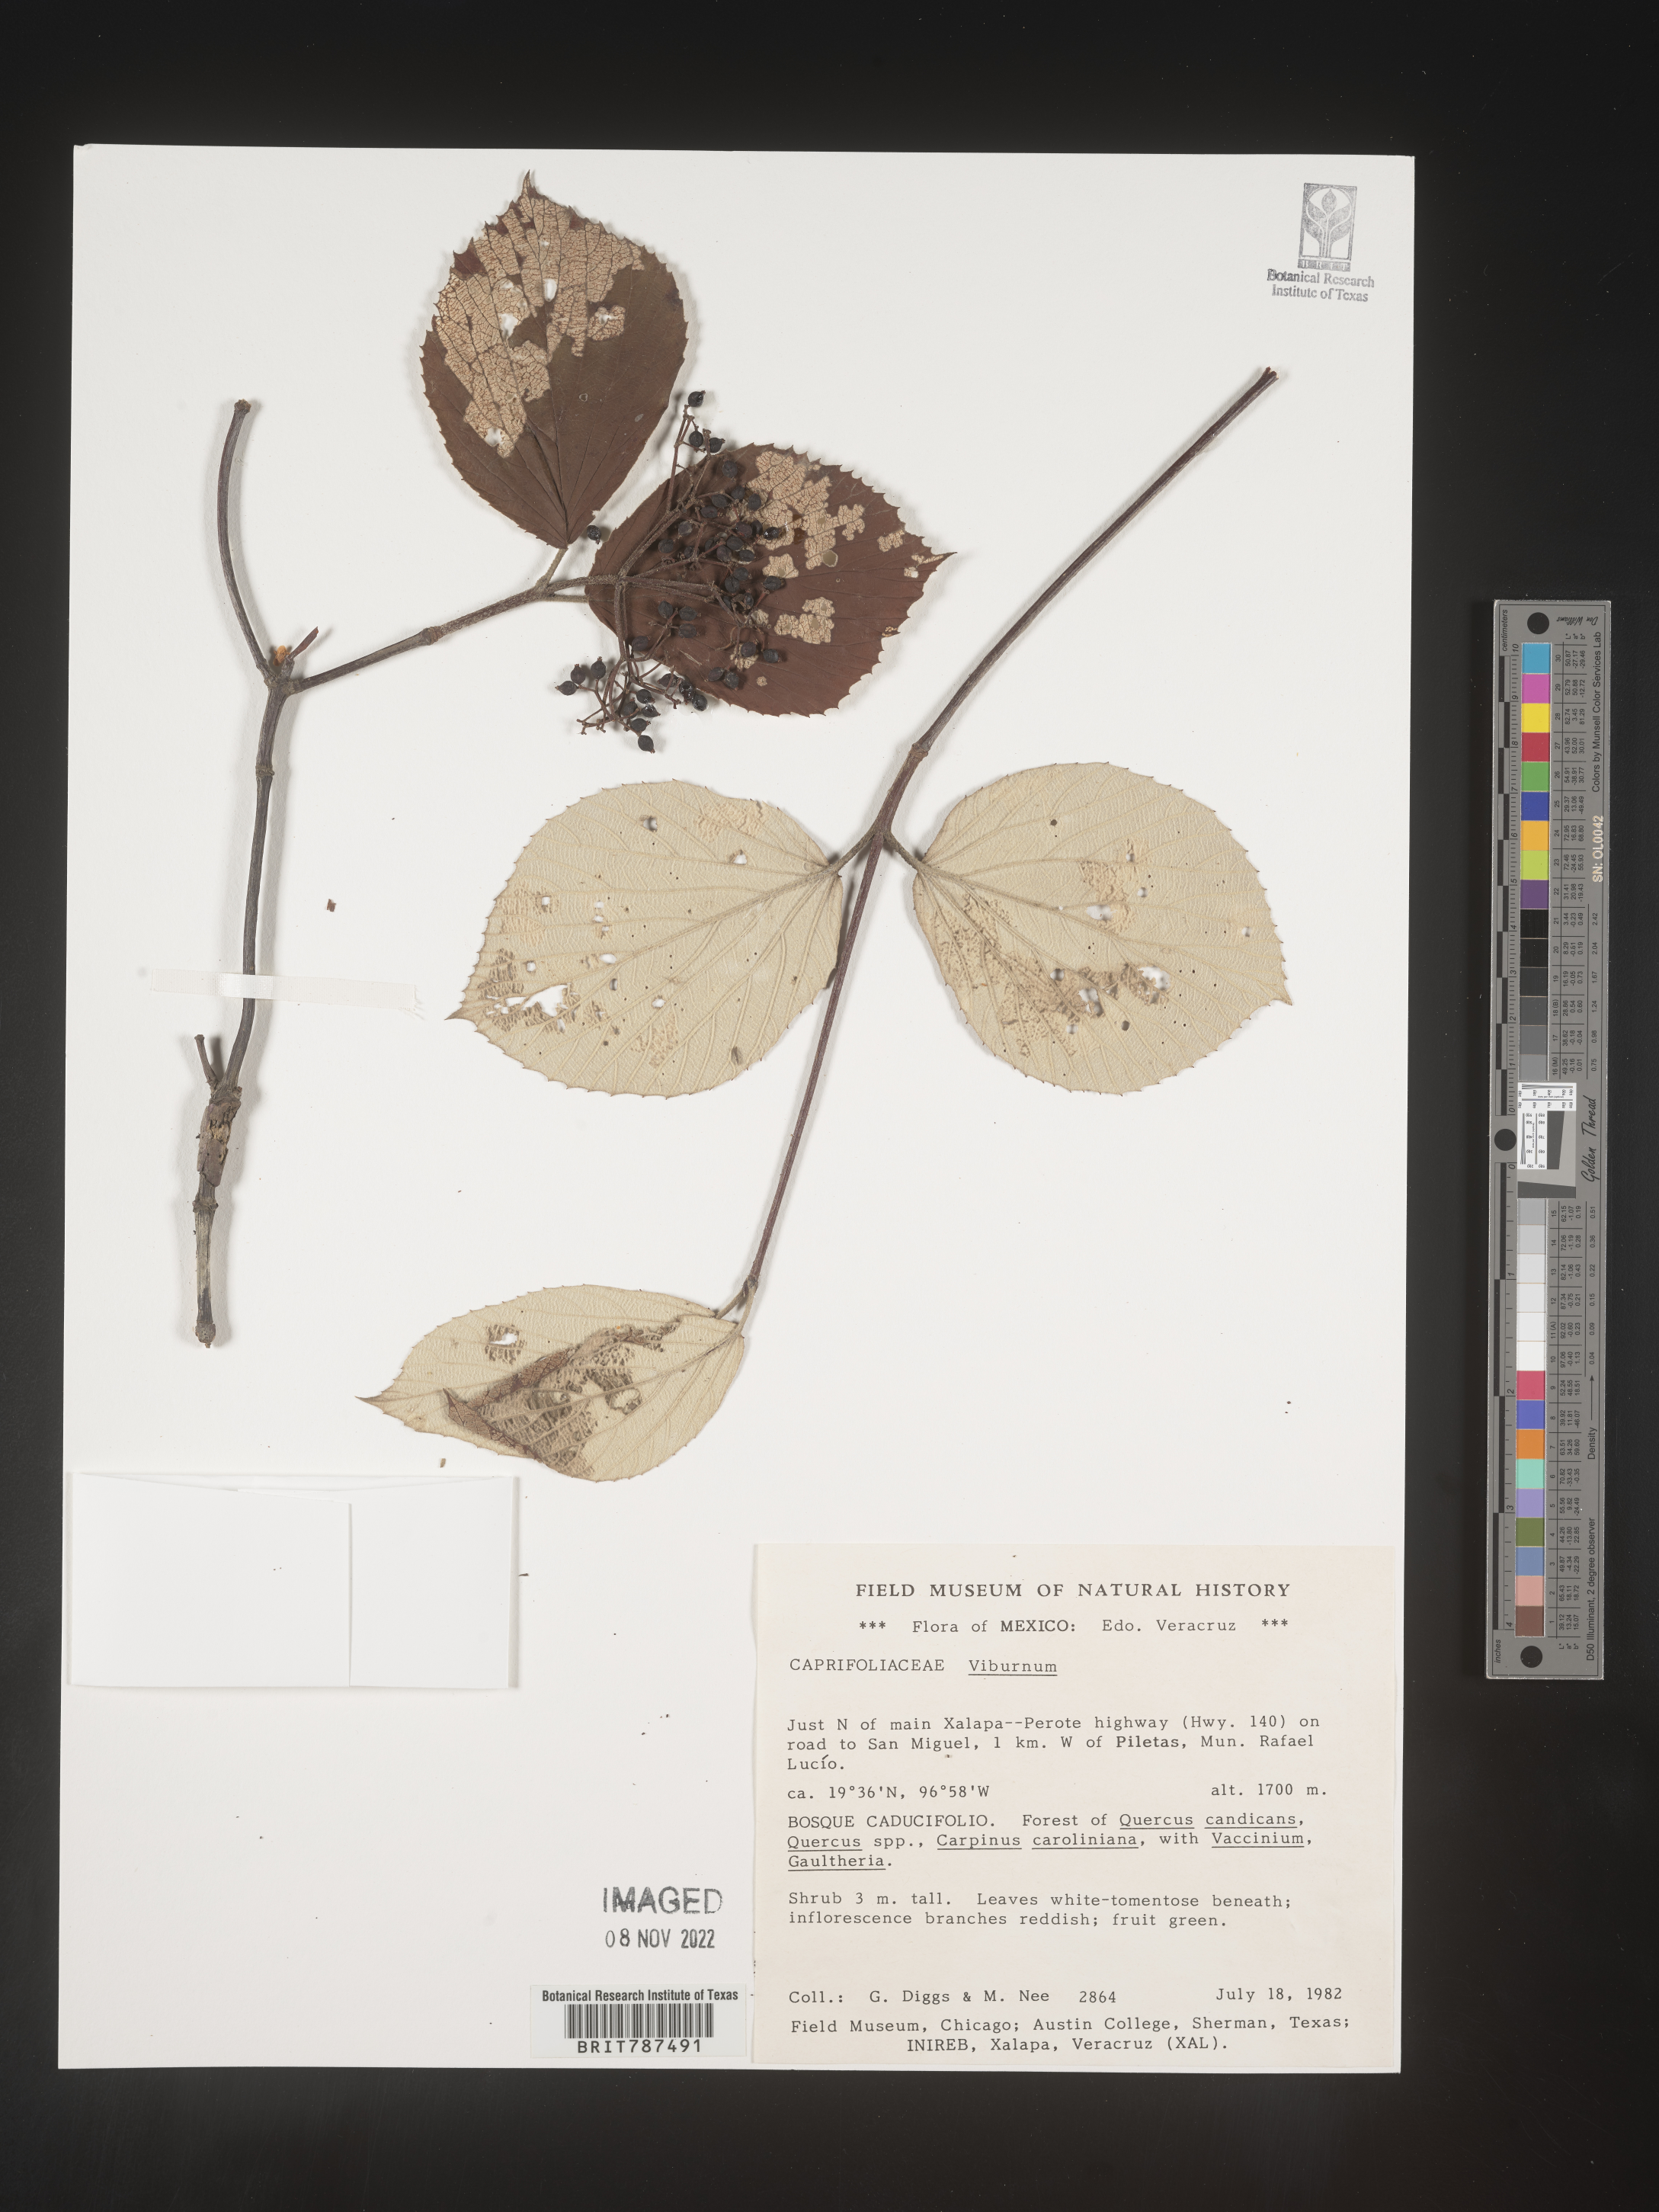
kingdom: Plantae
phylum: Tracheophyta
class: Magnoliopsida
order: Dipsacales
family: Viburnaceae
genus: Viburnum
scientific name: Viburnum
